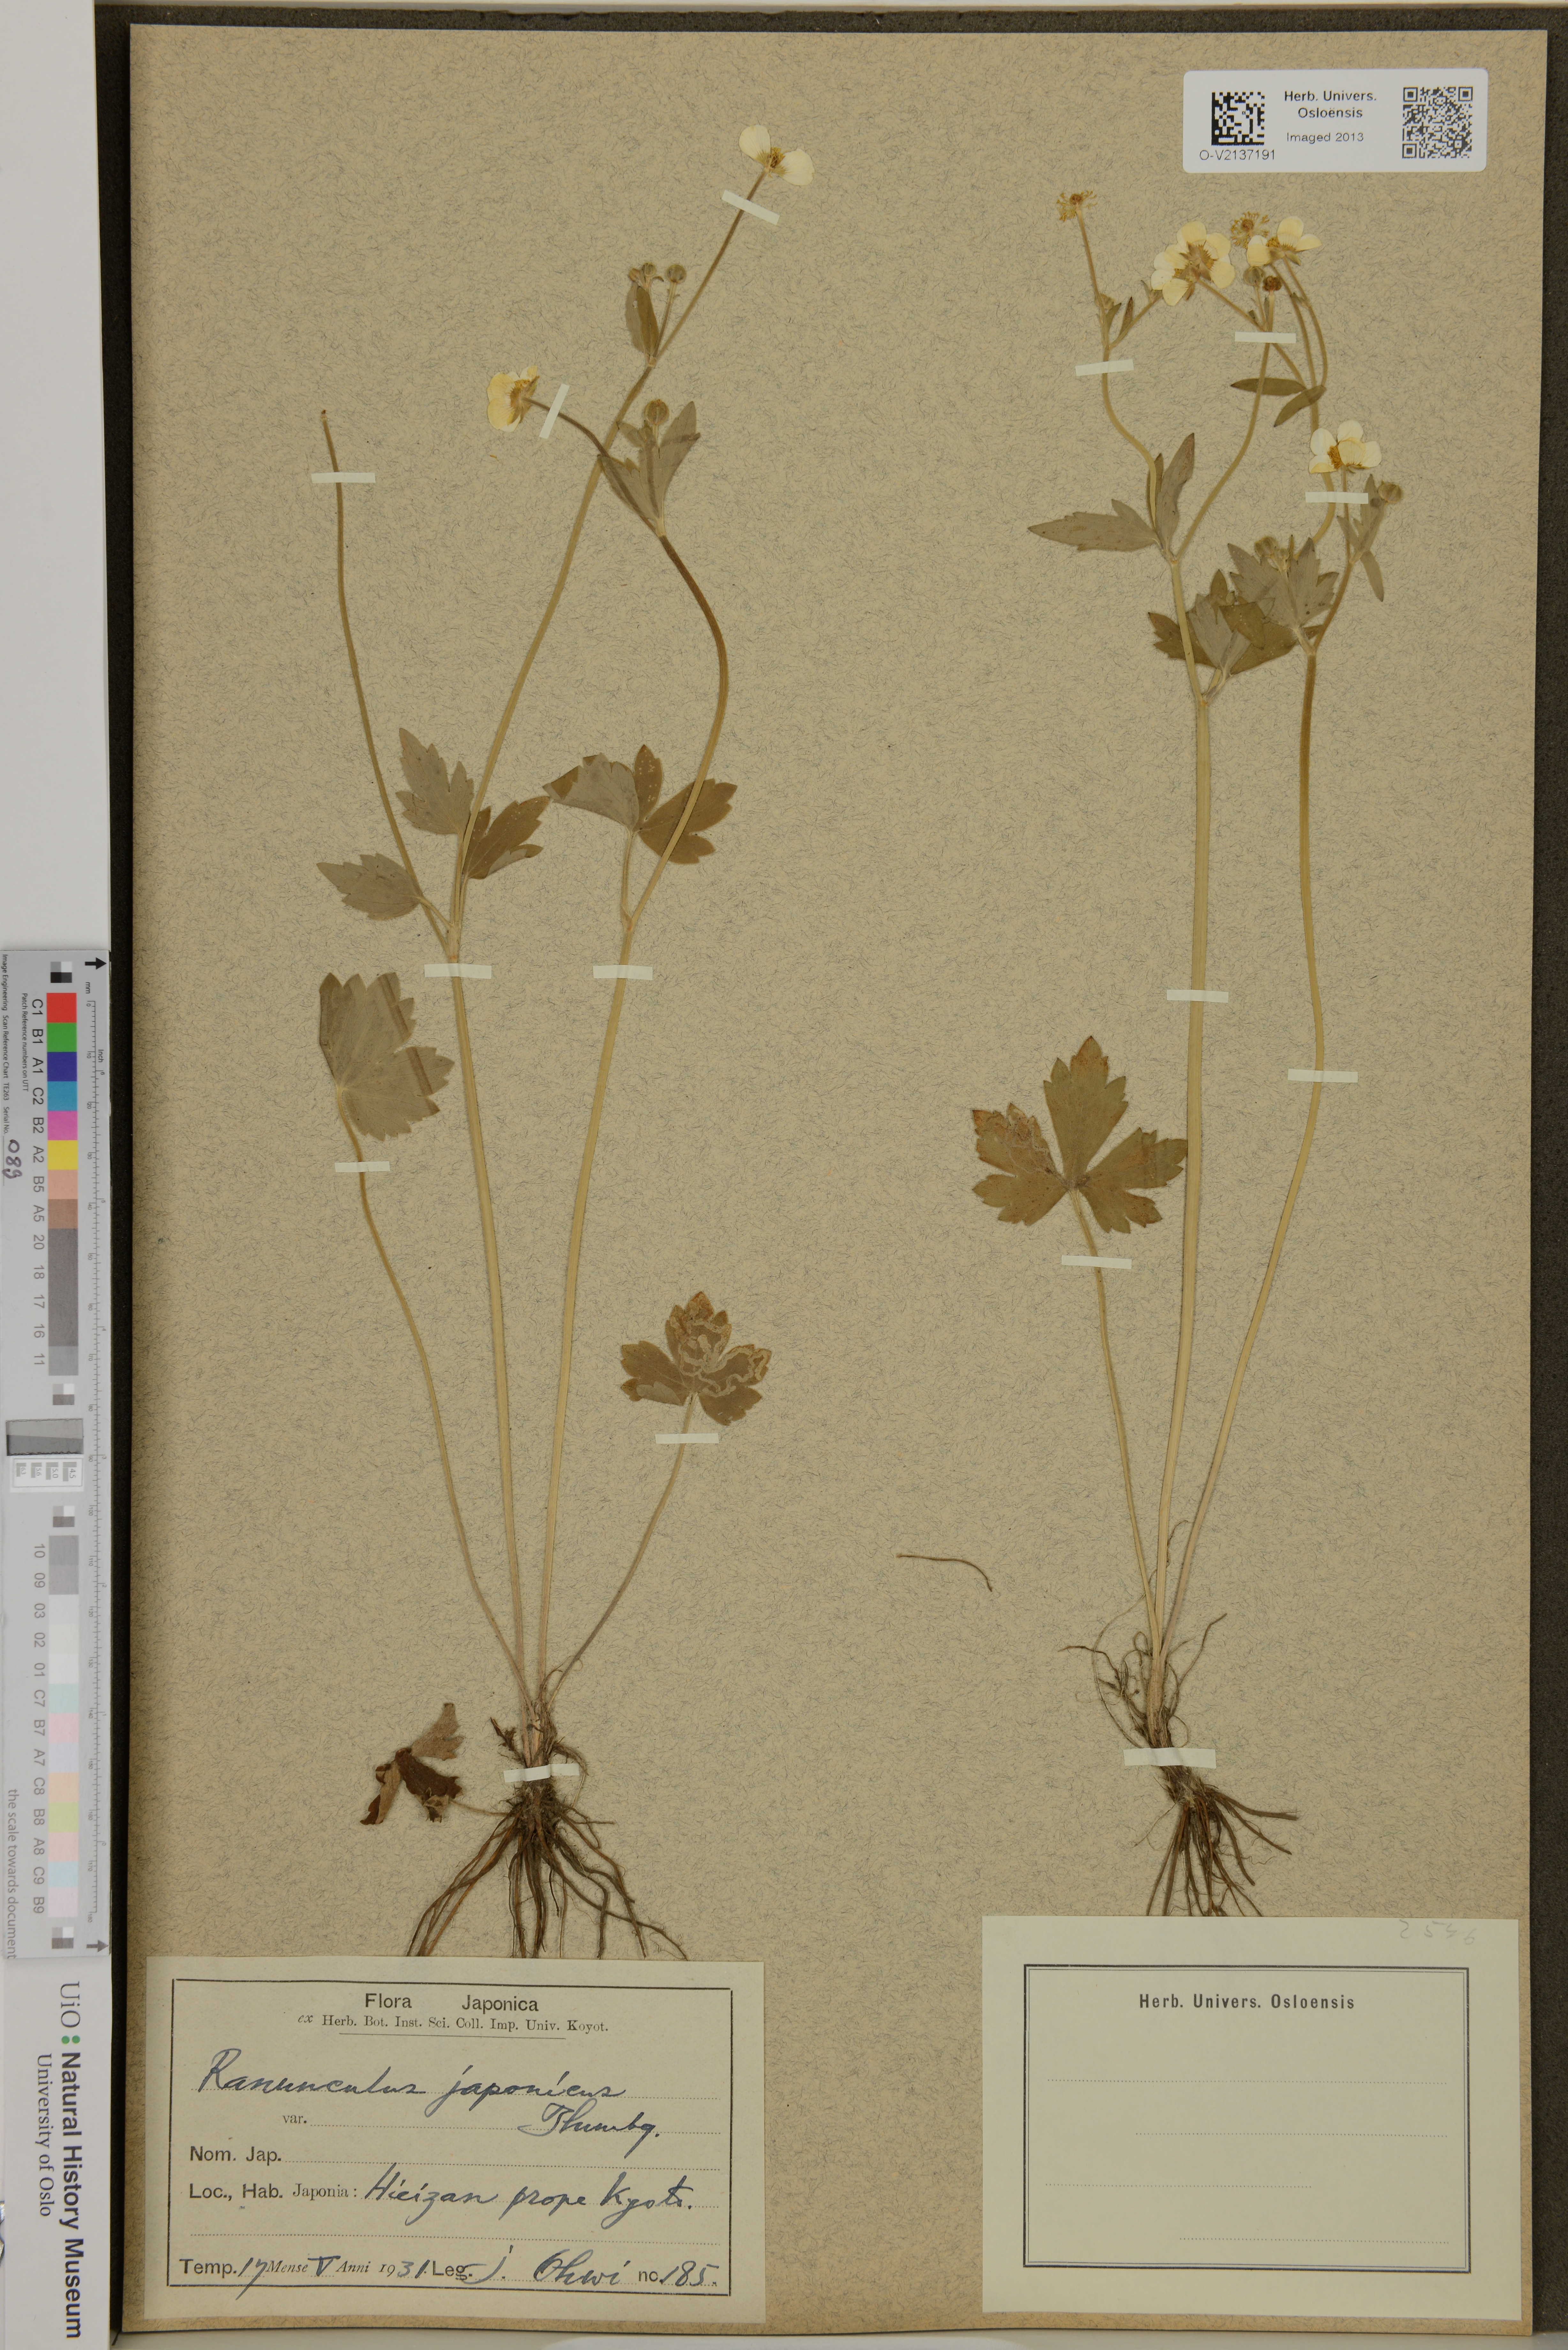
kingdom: Plantae
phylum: Tracheophyta
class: Magnoliopsida
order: Ranunculales
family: Ranunculaceae
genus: Ranunculus
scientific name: Ranunculus japonicus
